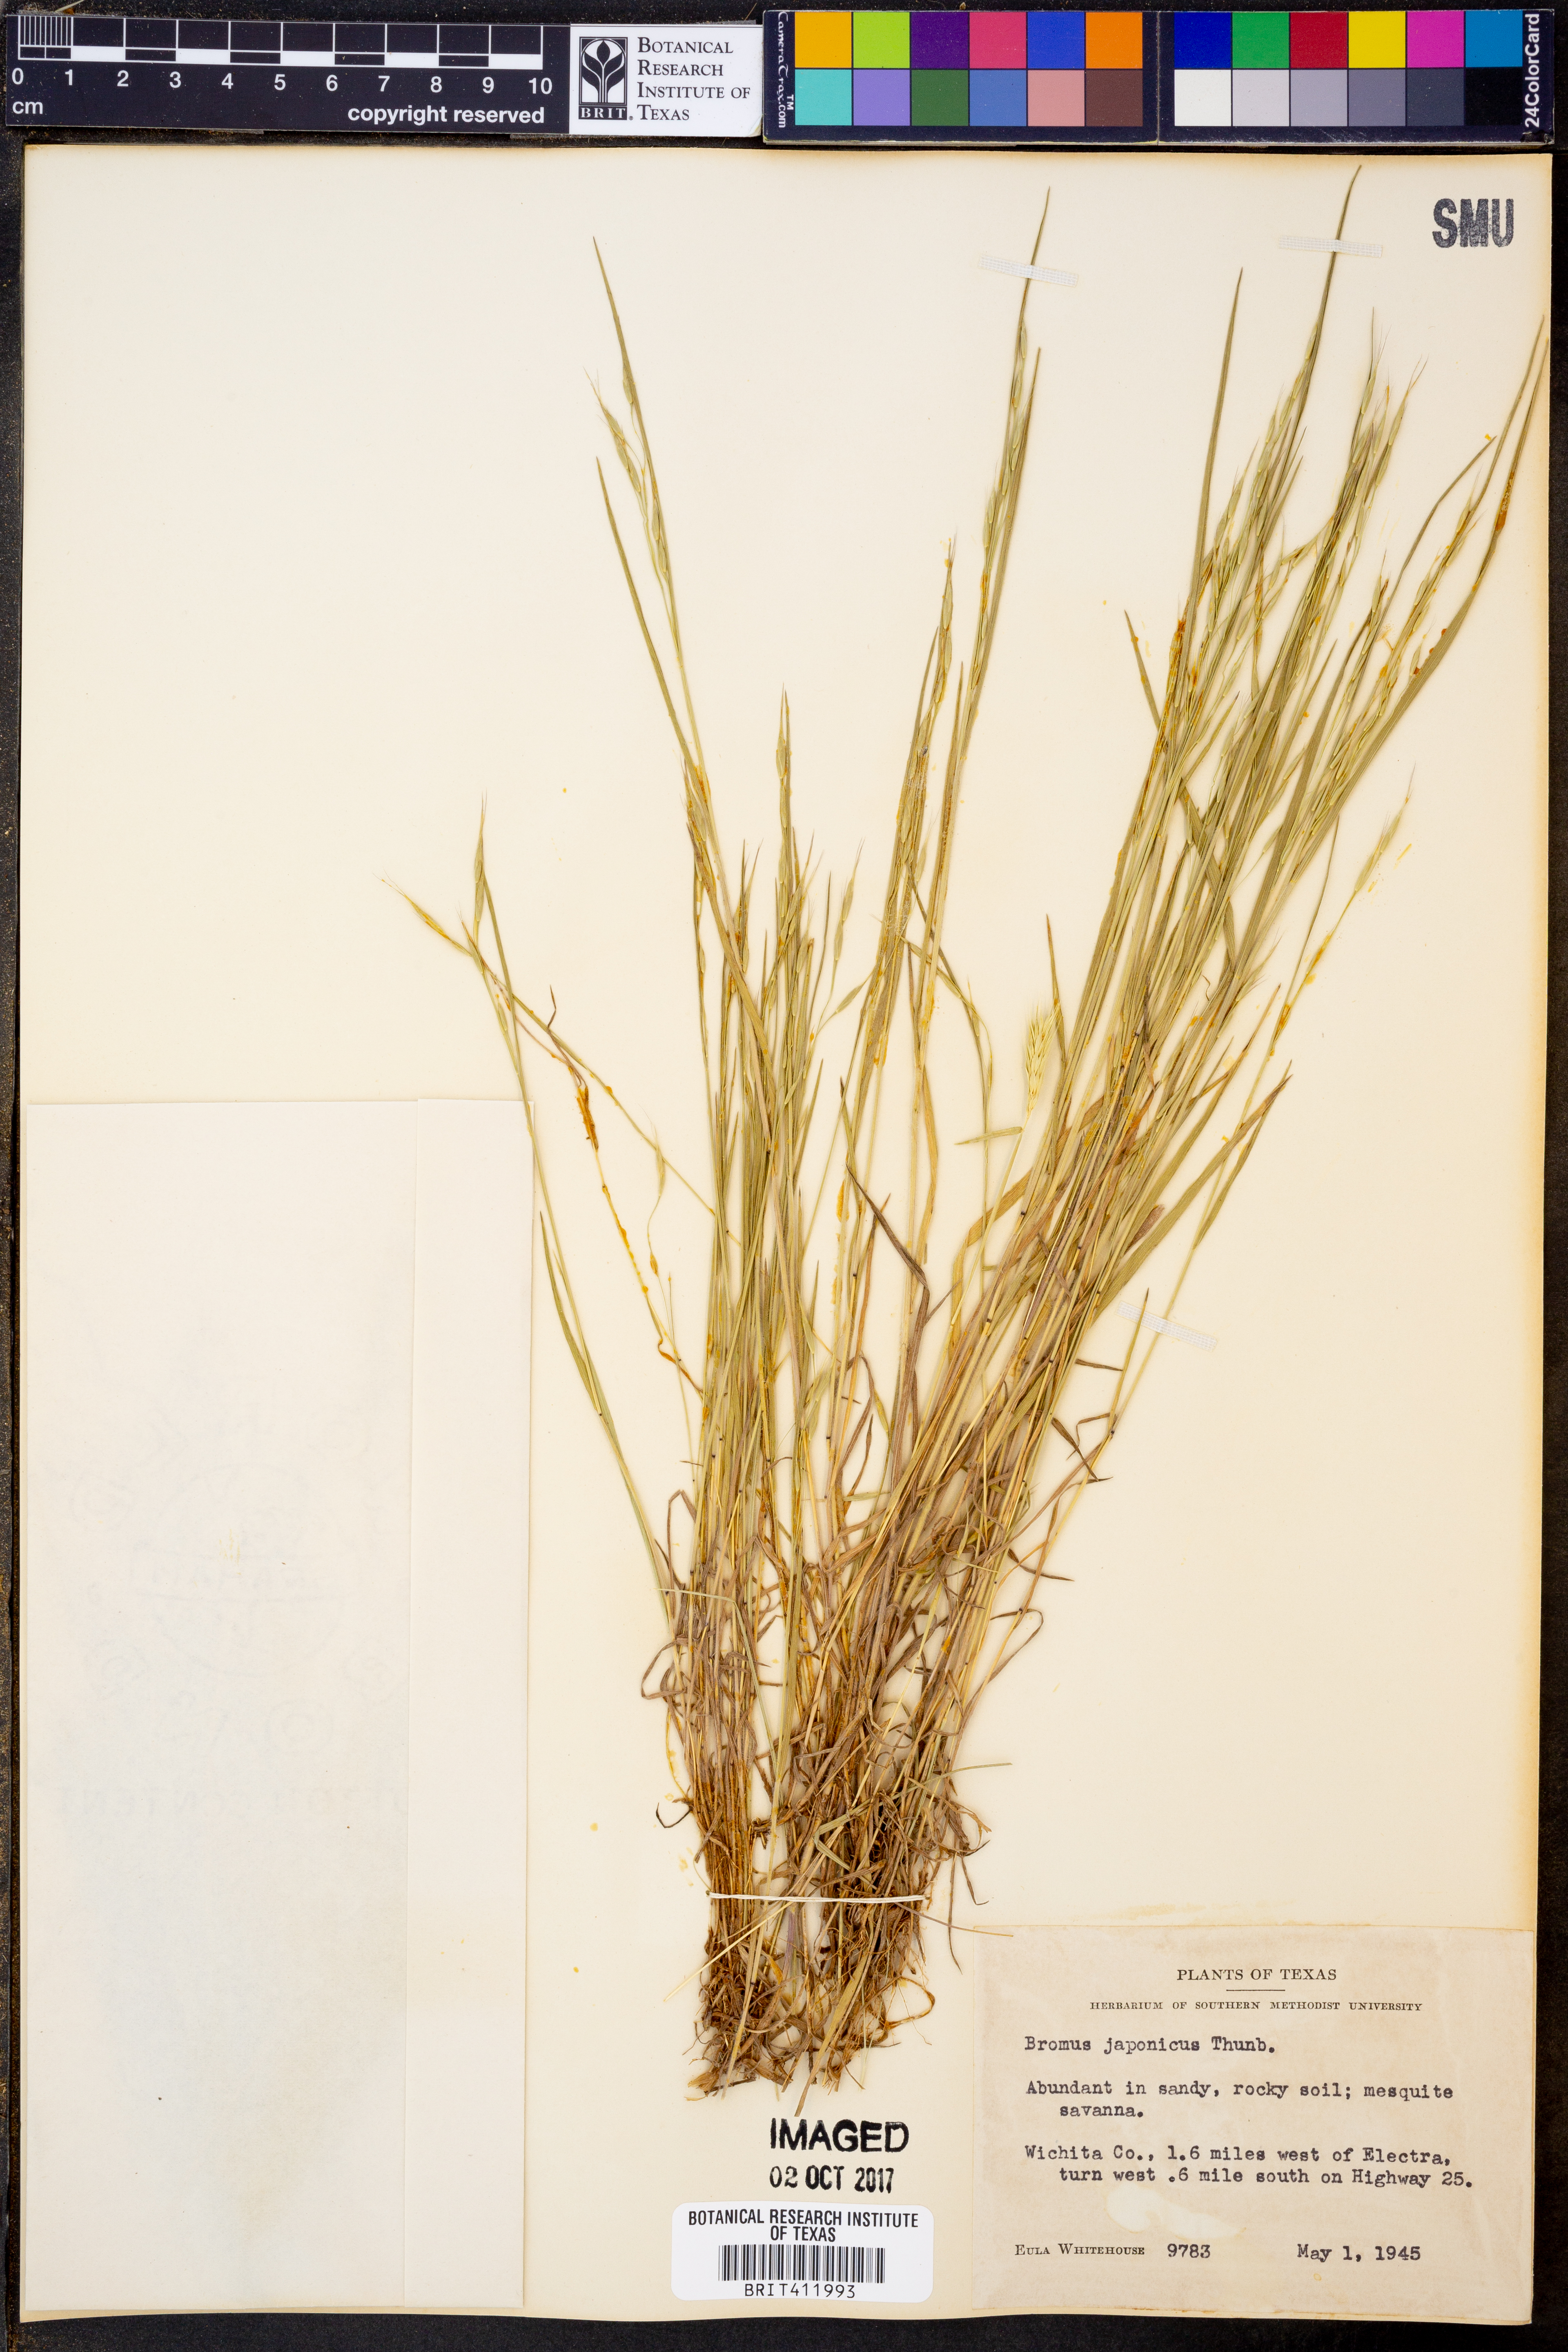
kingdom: Plantae
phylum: Tracheophyta
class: Liliopsida
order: Poales
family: Poaceae
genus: Bromus
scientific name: Bromus japonicus
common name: Japanese brome
